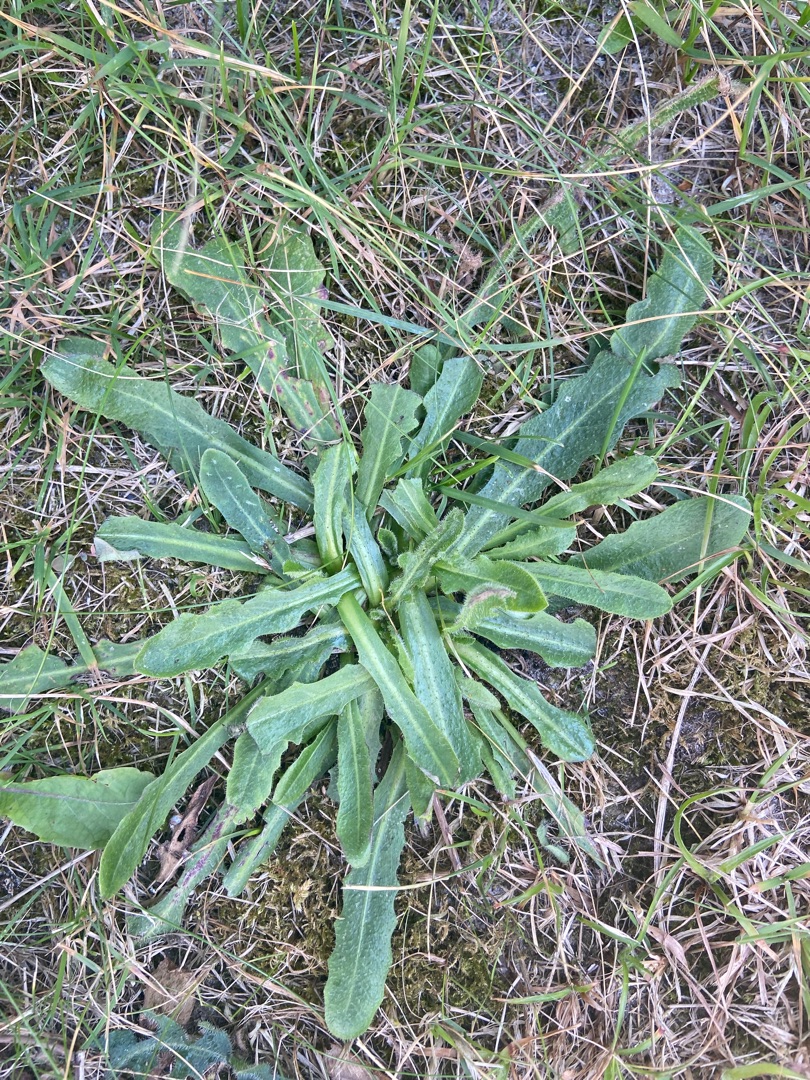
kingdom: Plantae
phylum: Tracheophyta
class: Magnoliopsida
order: Asterales
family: Asteraceae
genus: Hypochaeris
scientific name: Hypochaeris radicata
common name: Almindelig kongepen
